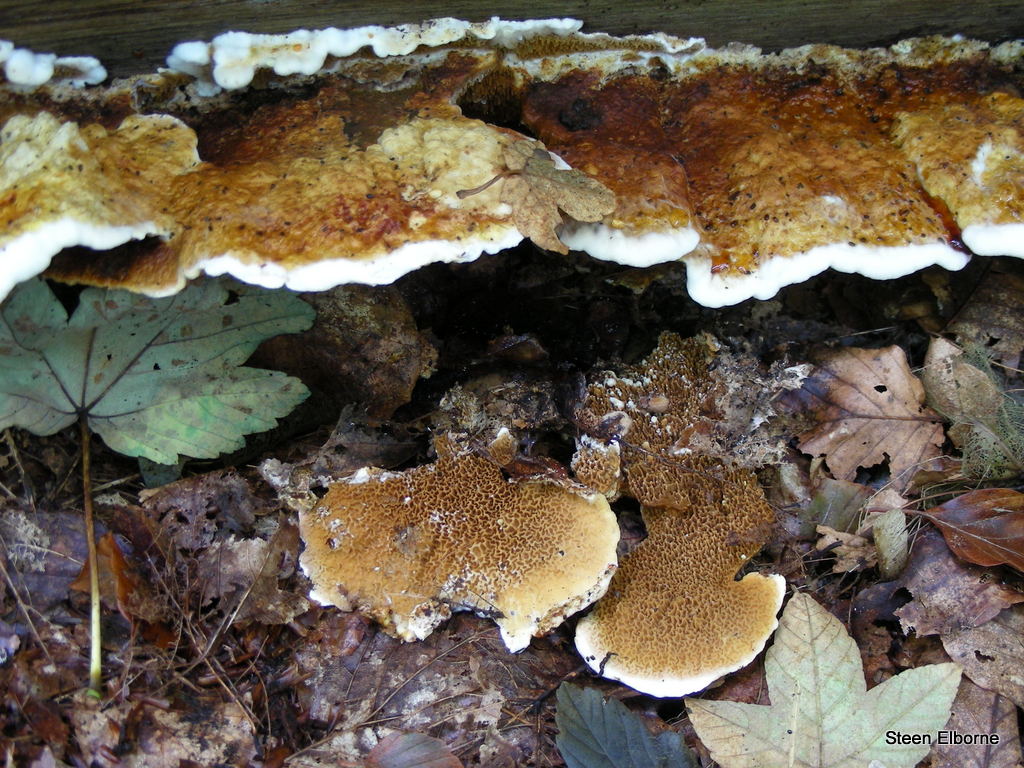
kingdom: Fungi
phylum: Basidiomycota
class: Agaricomycetes
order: Boletales
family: Serpulaceae
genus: Serpula
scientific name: Serpula lacrymans
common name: ægte hussvamp
